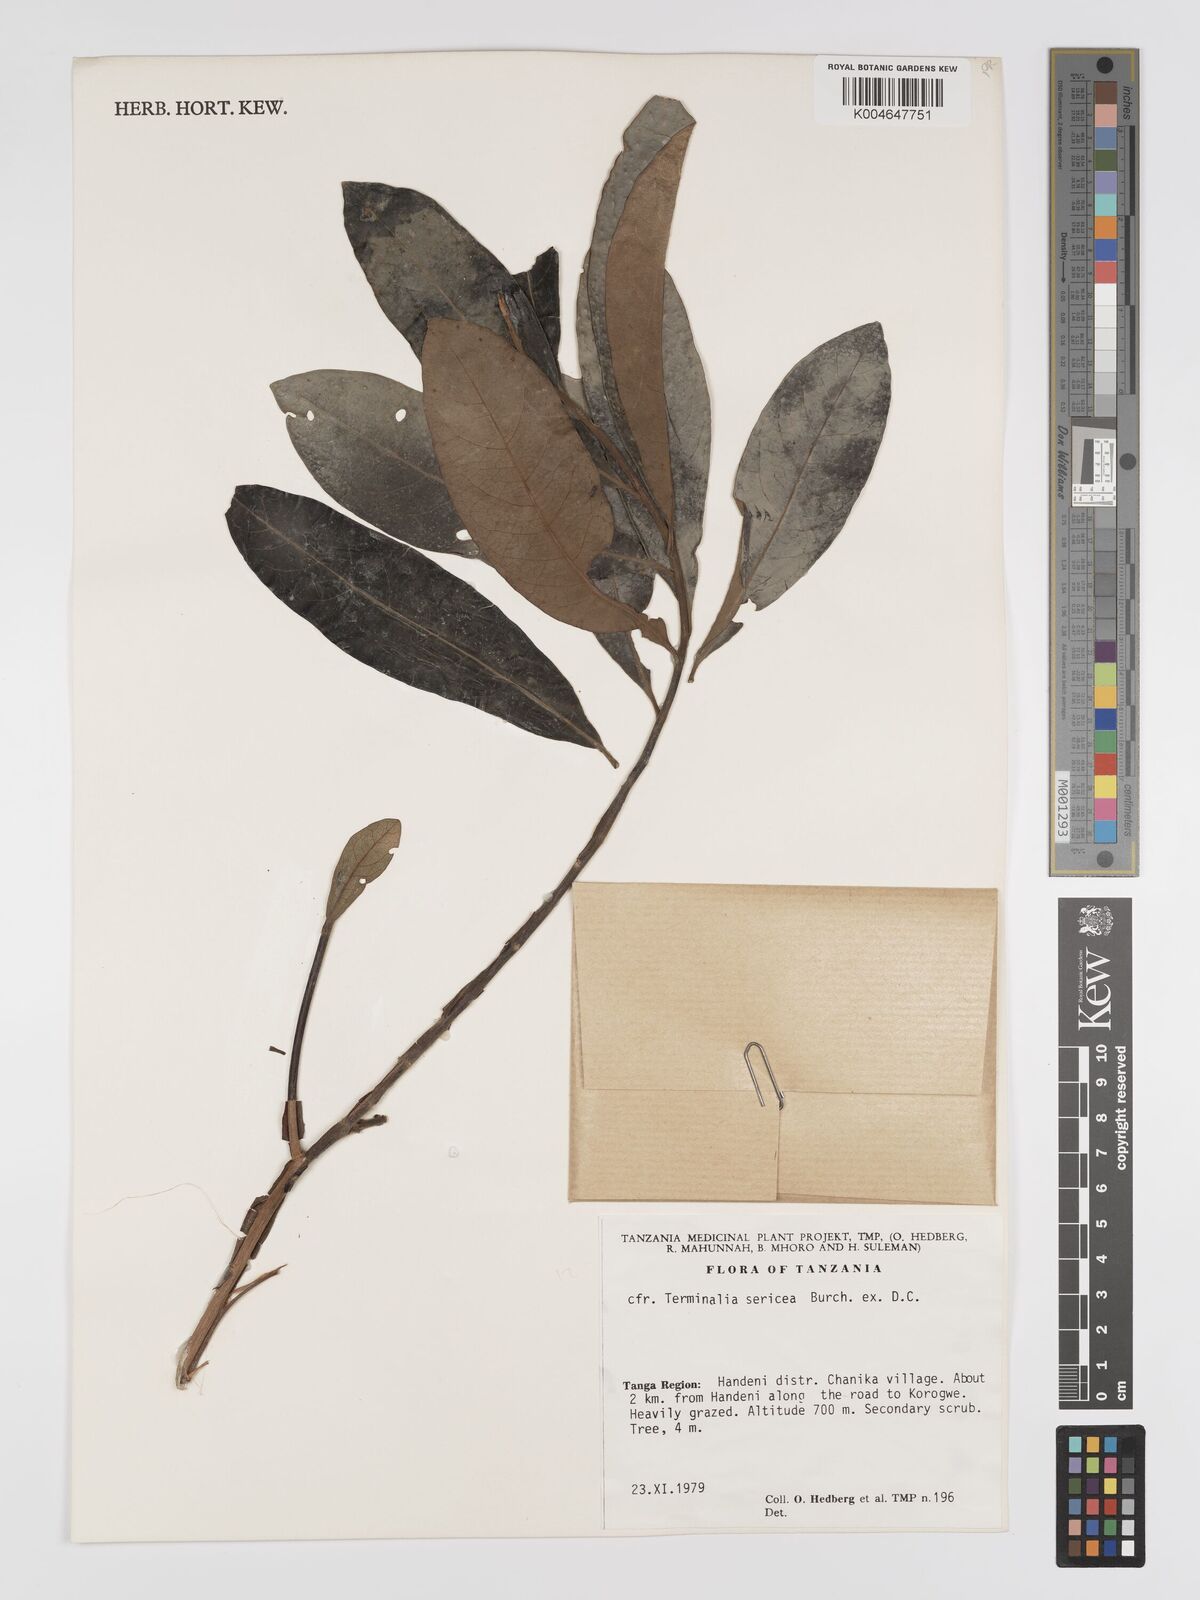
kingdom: Plantae
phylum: Tracheophyta
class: Magnoliopsida
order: Myrtales
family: Combretaceae
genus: Terminalia
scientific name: Terminalia
